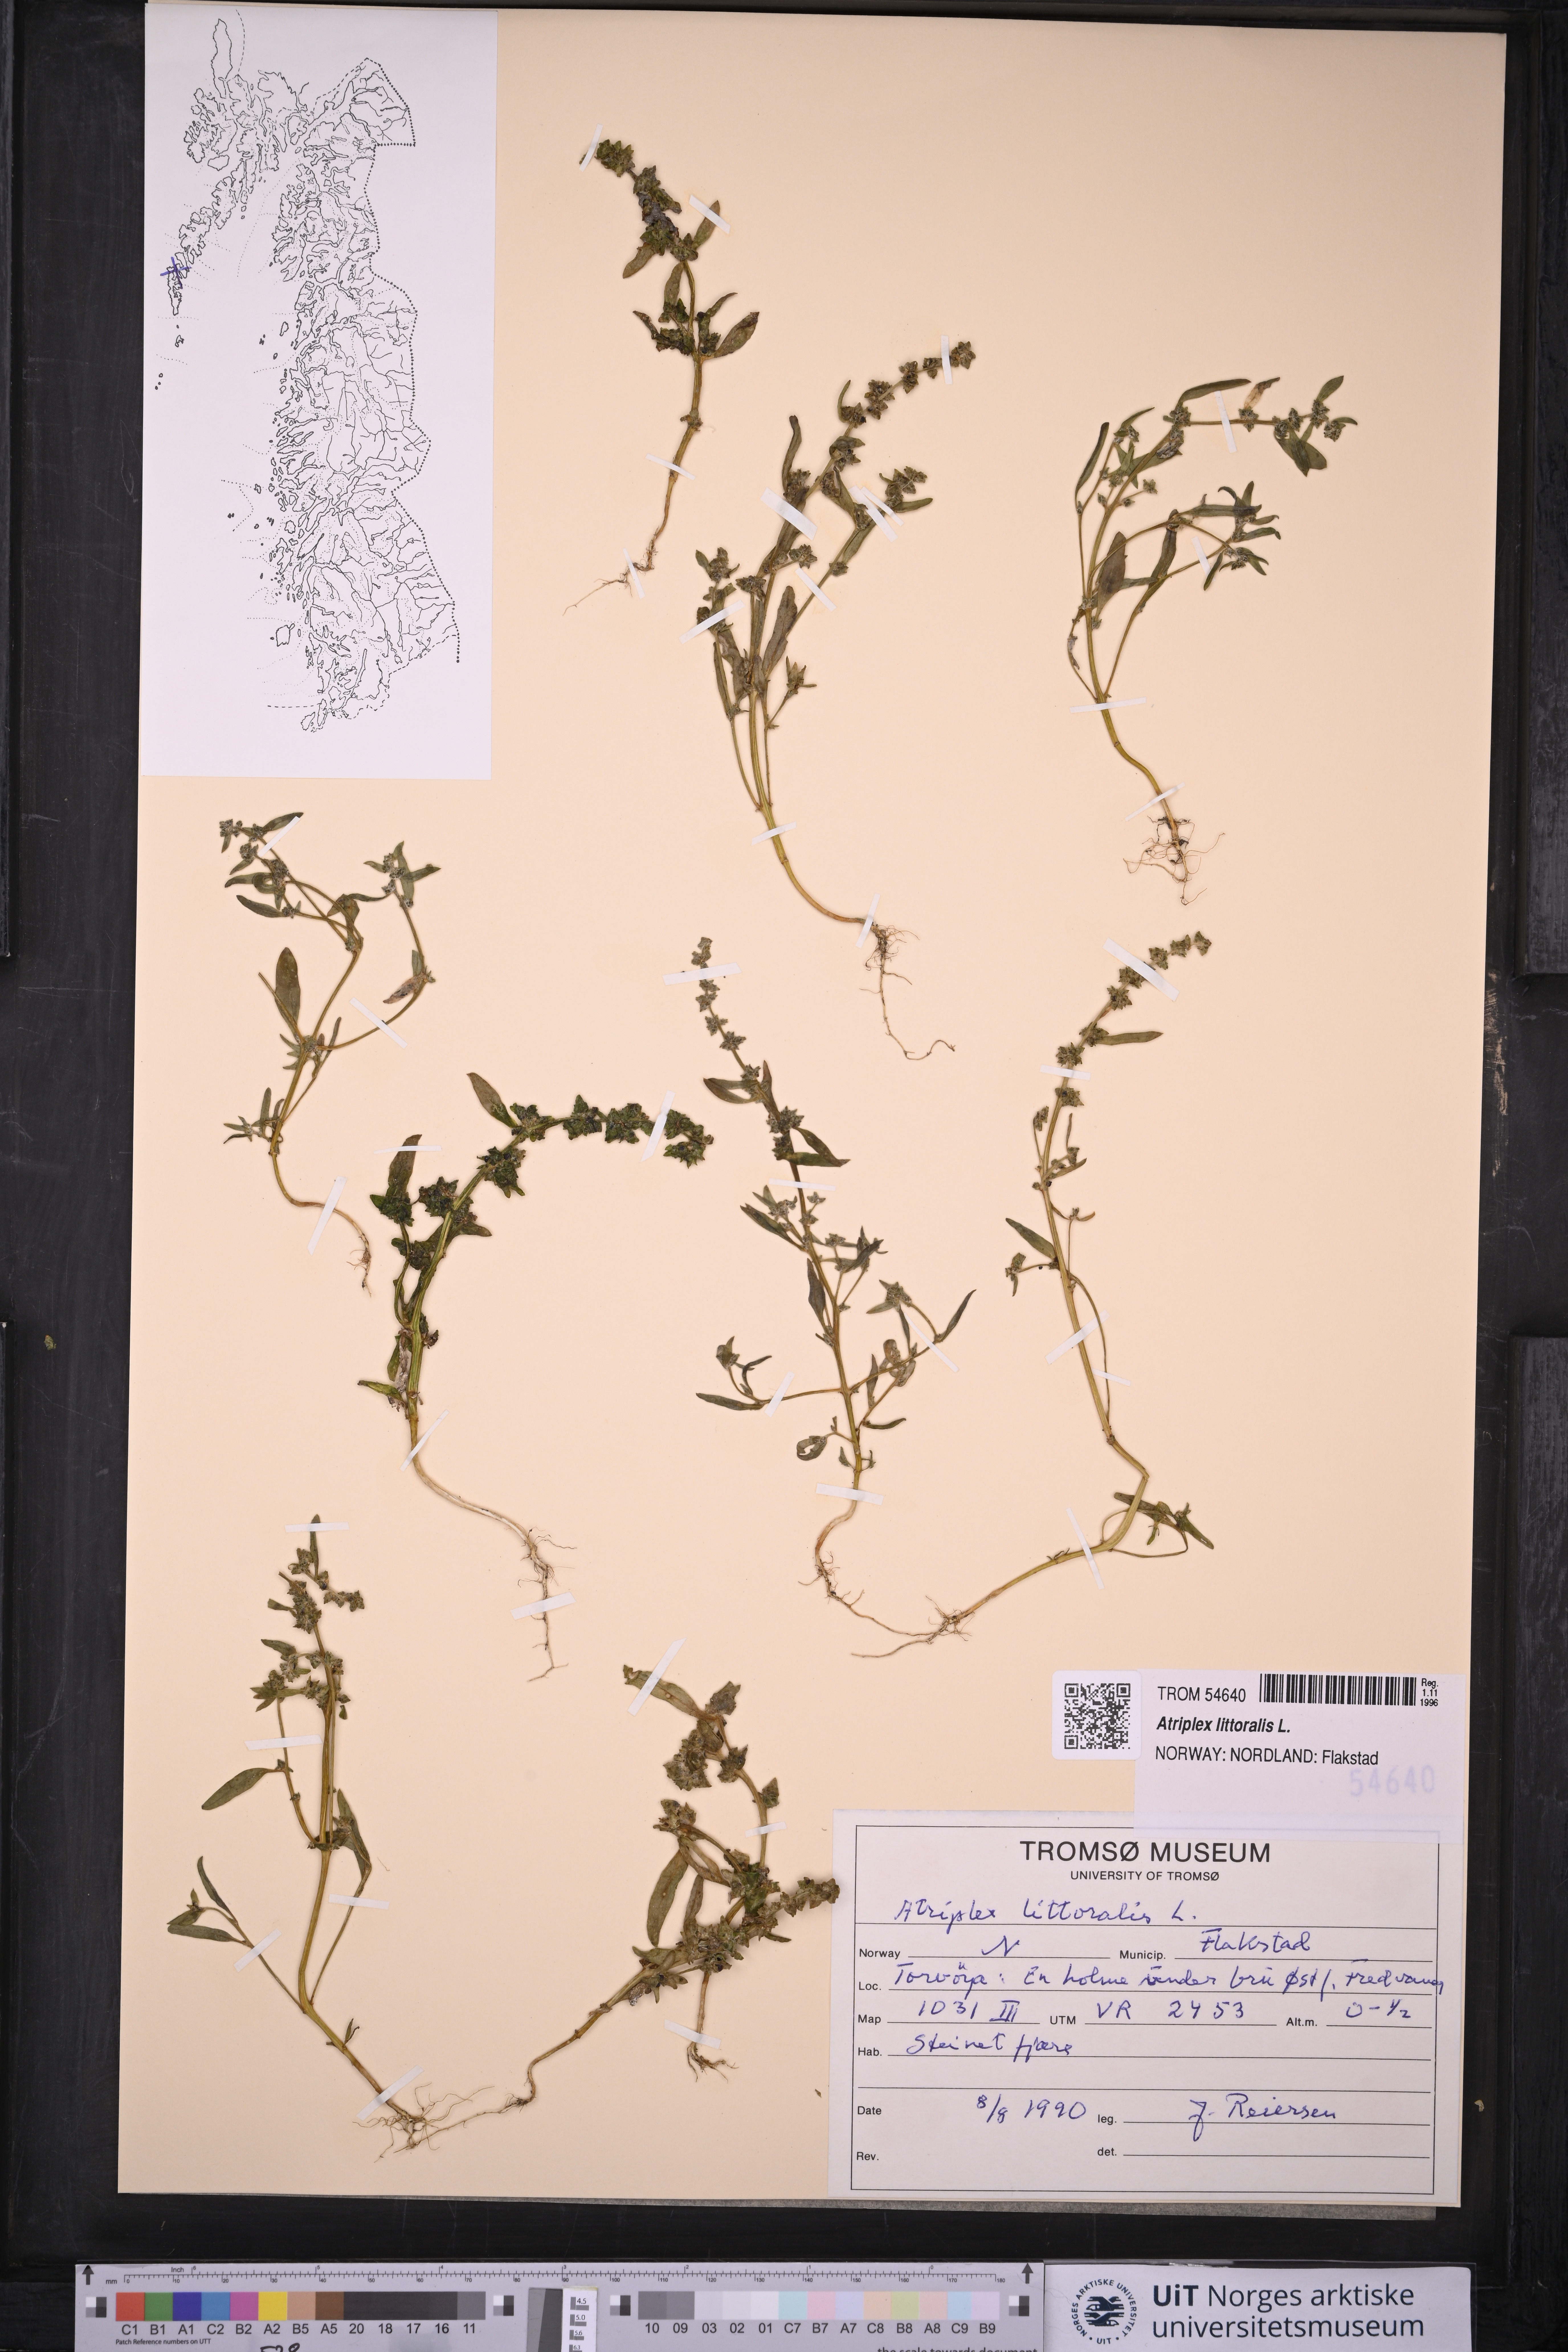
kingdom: Plantae
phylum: Tracheophyta
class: Magnoliopsida
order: Caryophyllales
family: Amaranthaceae
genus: Atriplex
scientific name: Atriplex littoralis
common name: Grass-leaved orache
